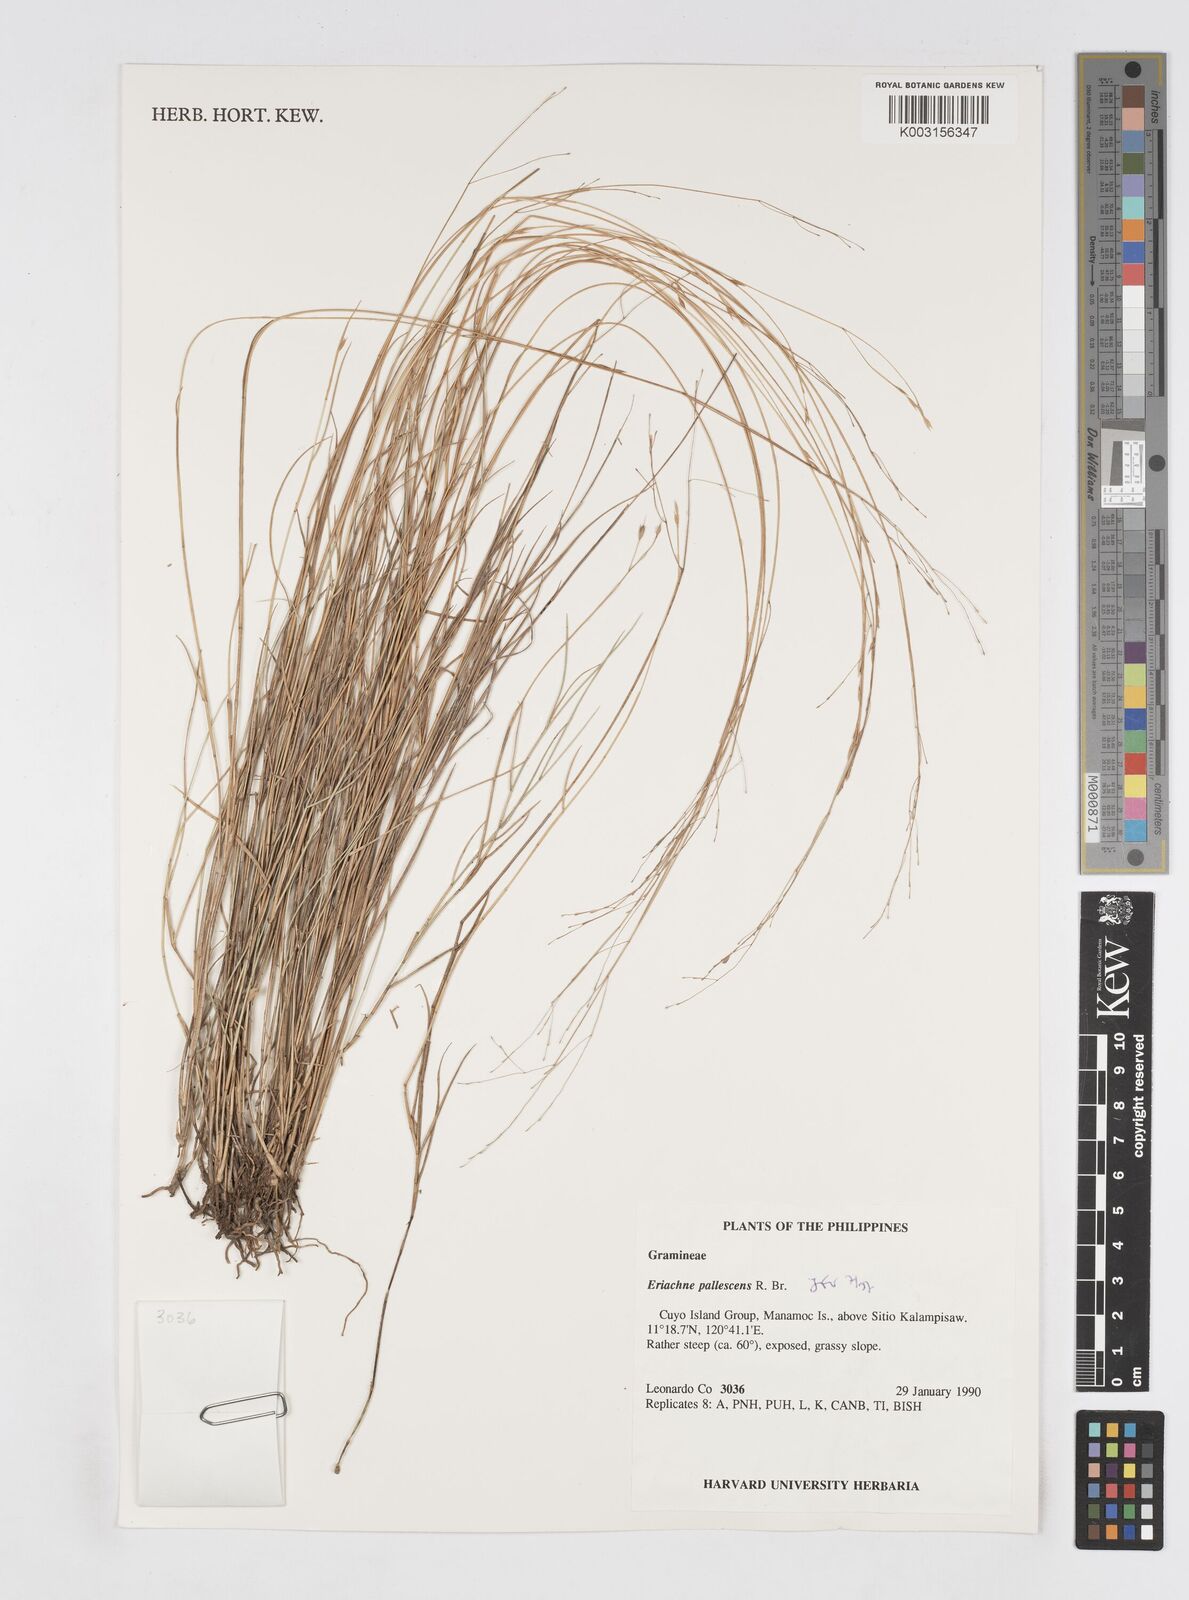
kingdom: Plantae
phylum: Tracheophyta
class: Liliopsida
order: Poales
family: Poaceae
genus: Eriachne
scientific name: Eriachne pallescens
